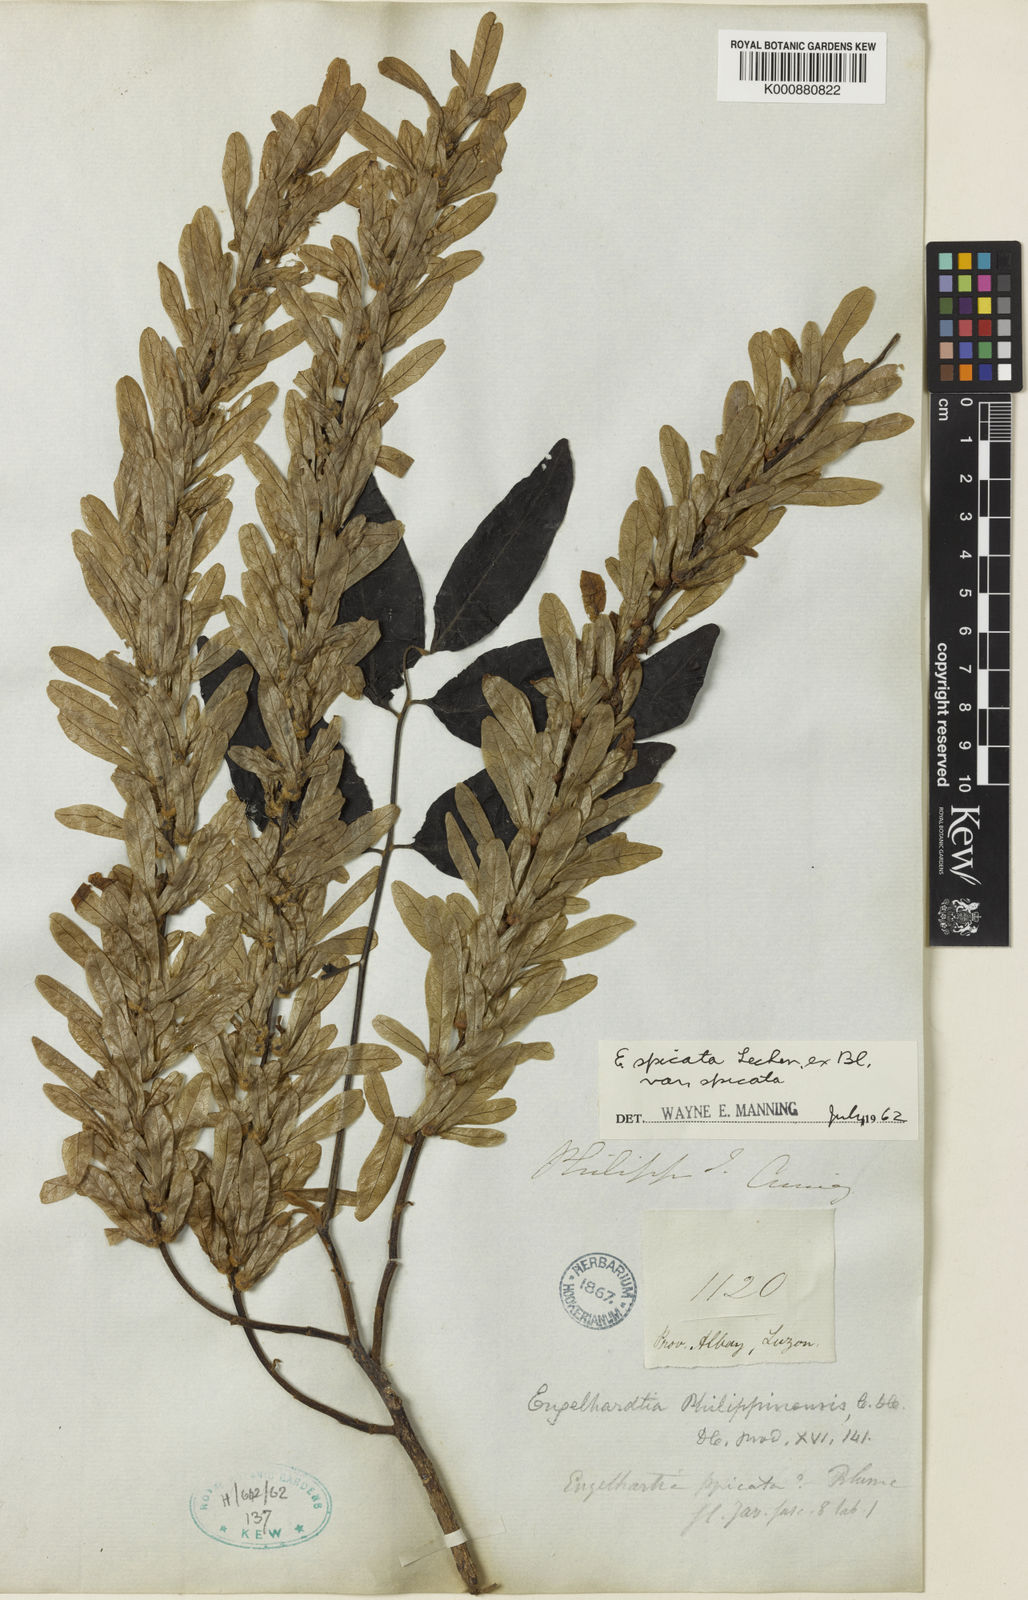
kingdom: Plantae
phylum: Tracheophyta
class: Magnoliopsida
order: Fagales
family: Juglandaceae
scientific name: Juglandaceae
